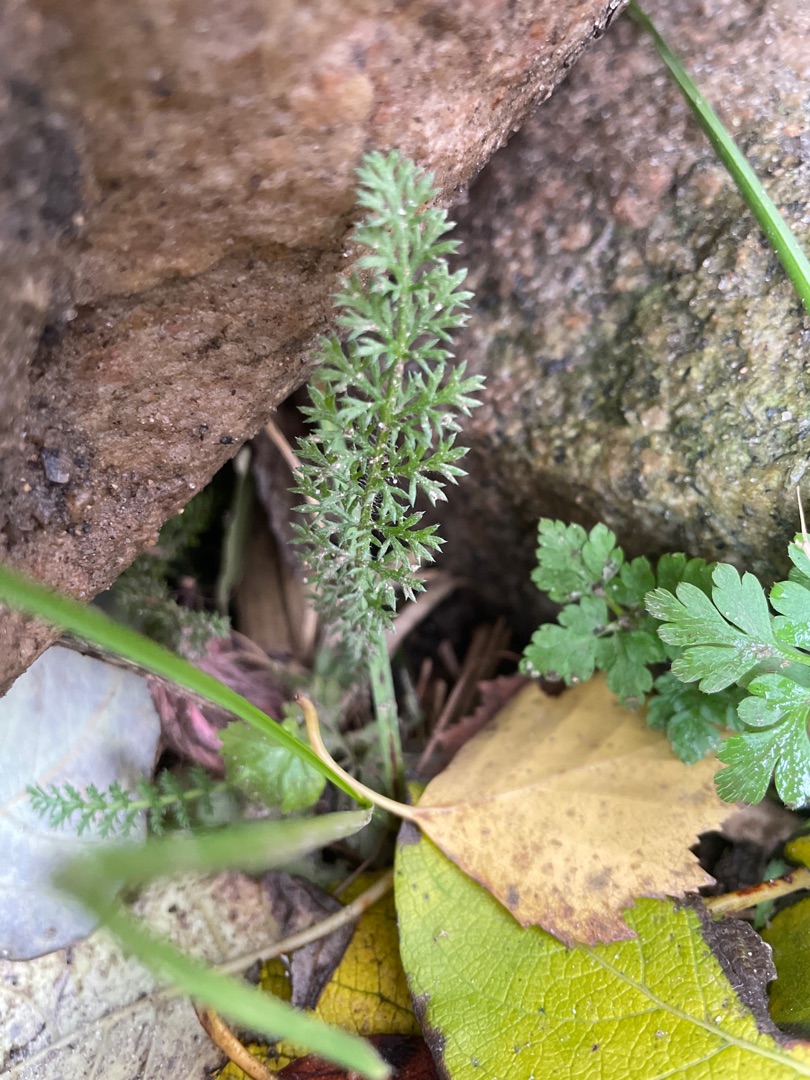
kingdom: Plantae
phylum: Tracheophyta
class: Magnoliopsida
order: Asterales
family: Asteraceae
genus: Achillea
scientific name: Achillea millefolium
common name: Almindelig røllike
